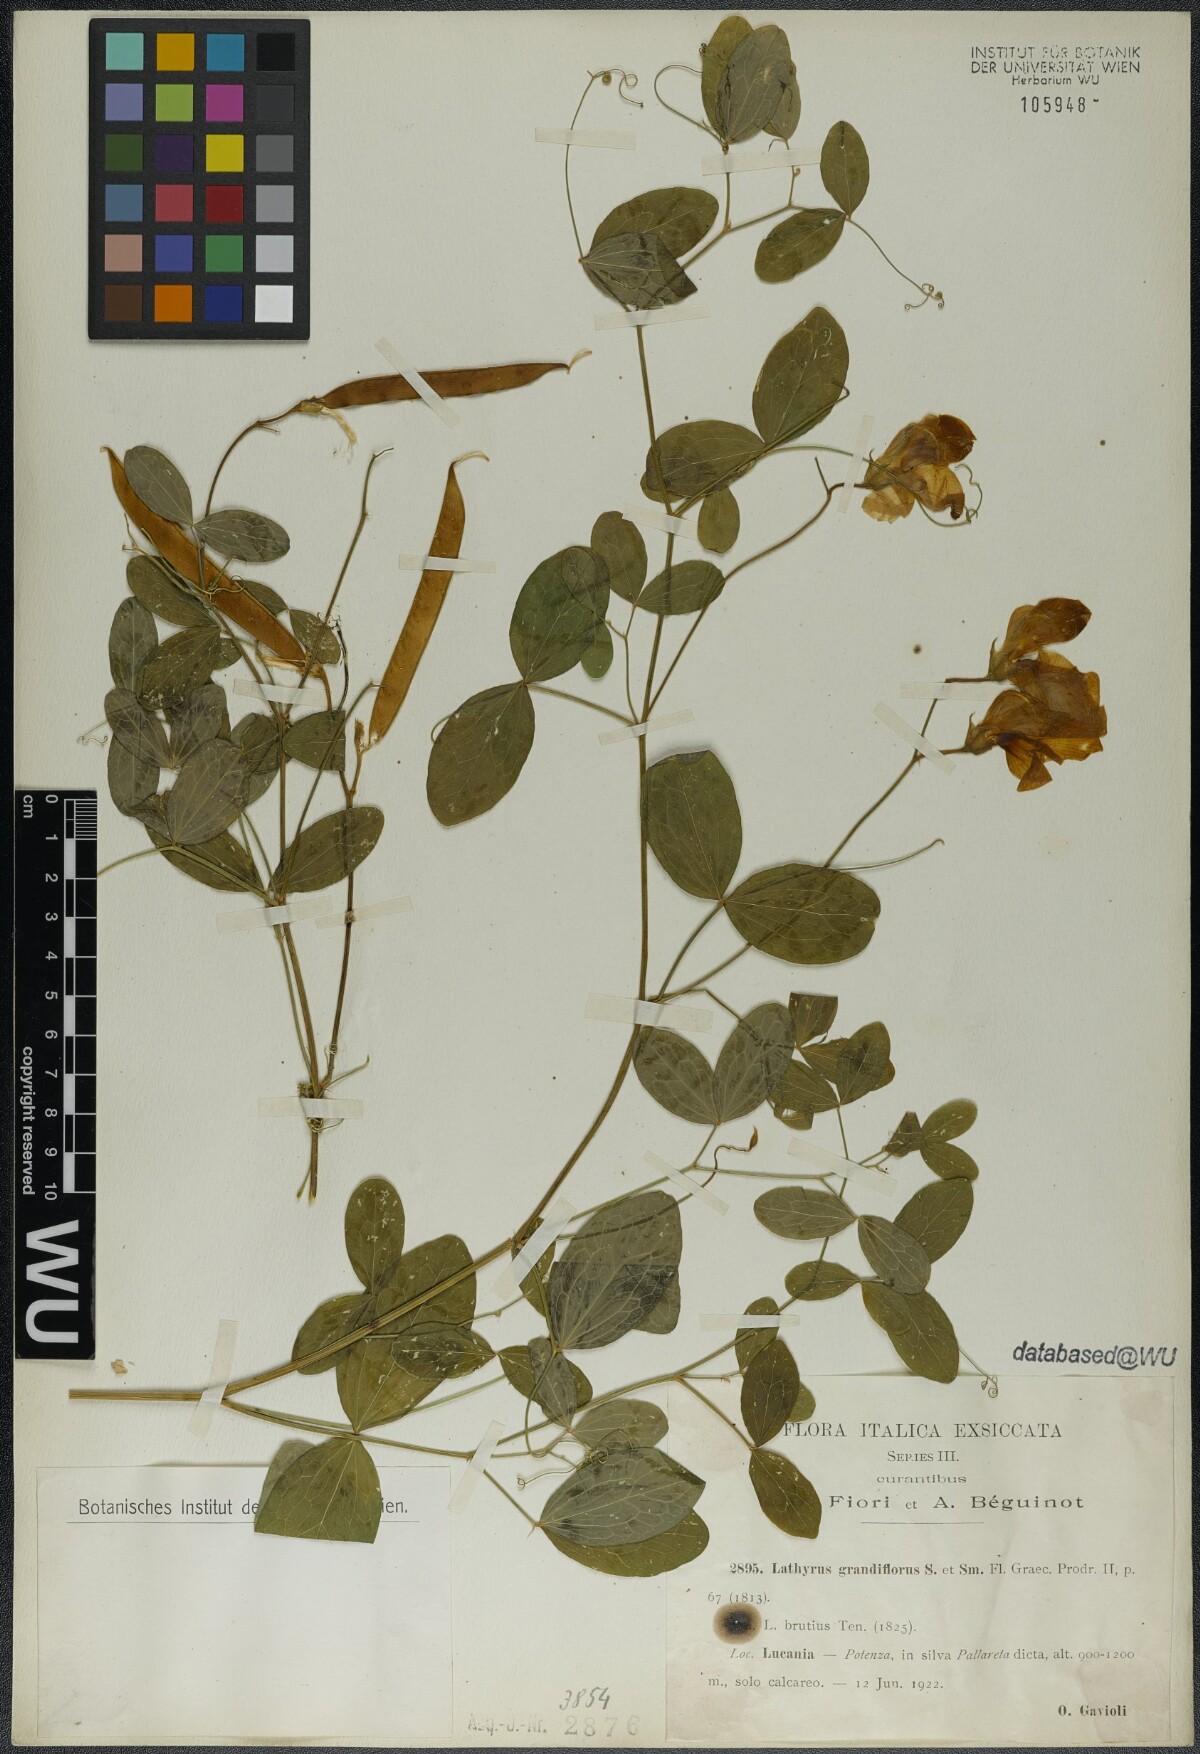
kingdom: Plantae
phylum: Tracheophyta
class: Magnoliopsida
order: Fabales
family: Fabaceae
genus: Lathyrus
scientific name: Lathyrus grandiflorus
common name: Two-flowered everlasting-pea
